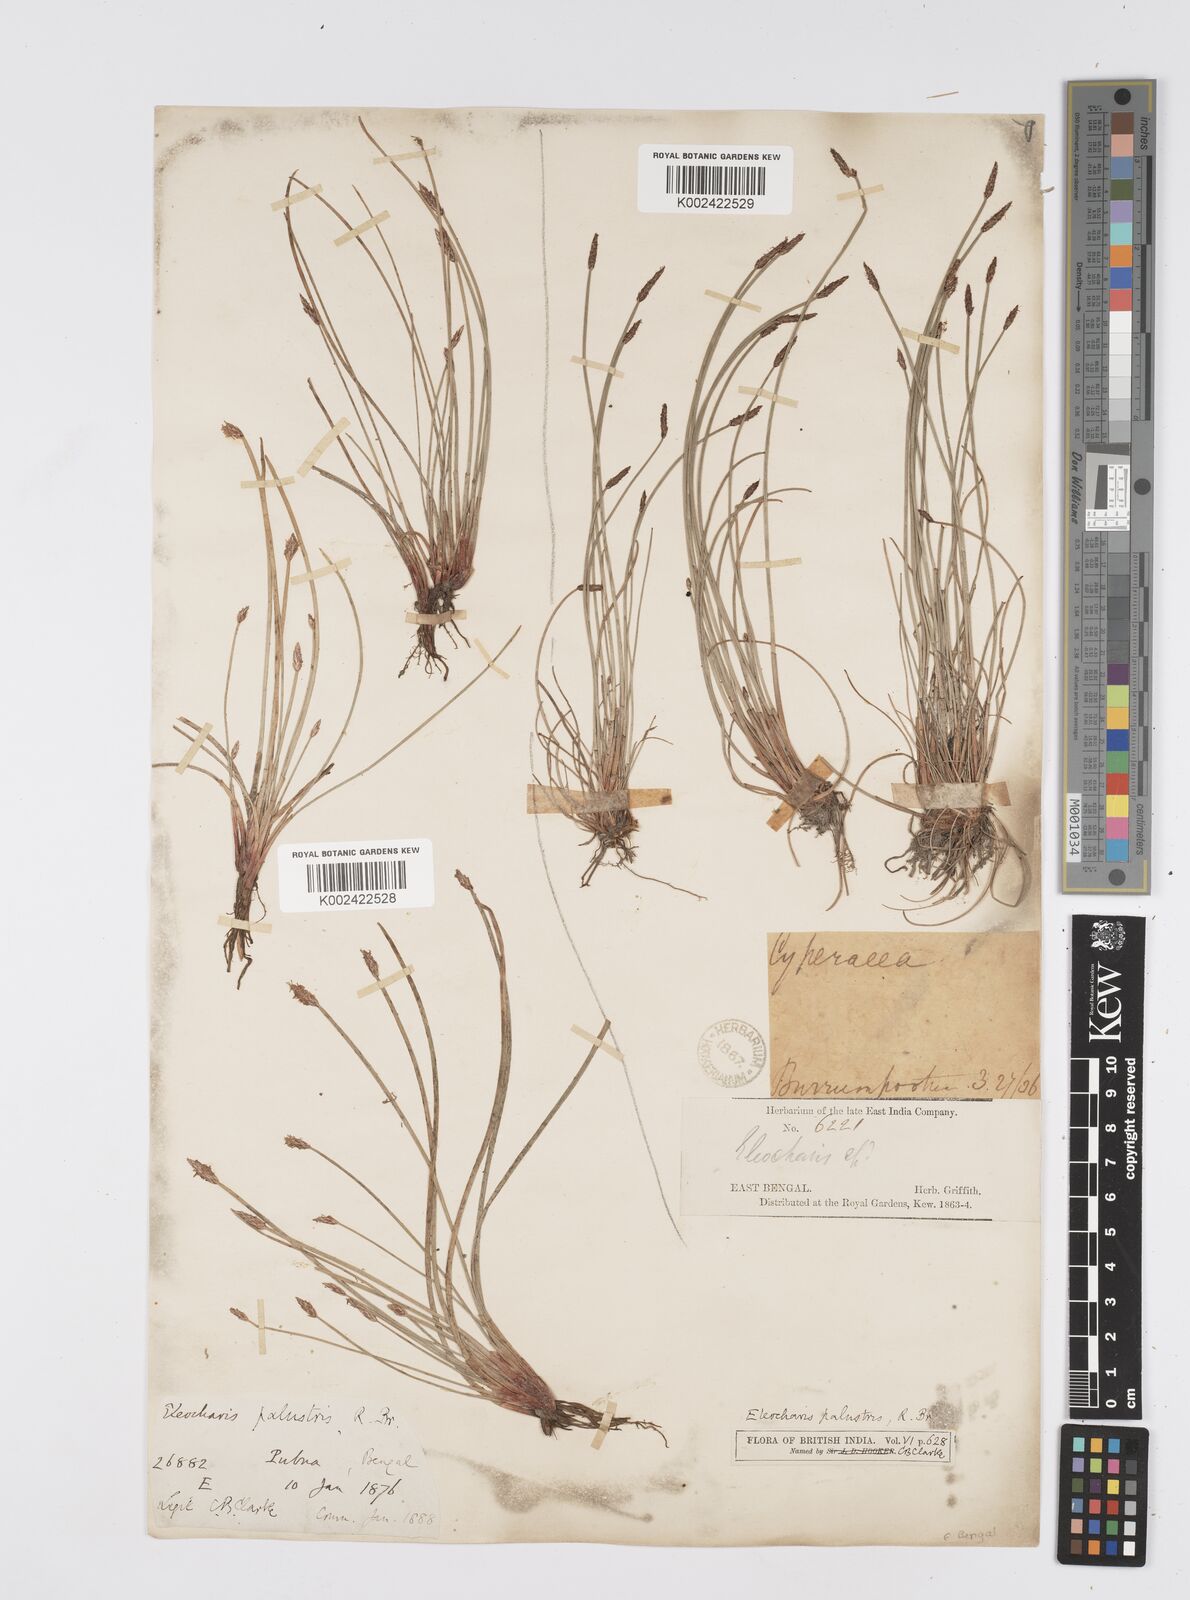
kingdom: Plantae
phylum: Tracheophyta
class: Liliopsida
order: Poales
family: Cyperaceae
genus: Eleocharis
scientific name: Eleocharis palustris
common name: Common spike-rush
